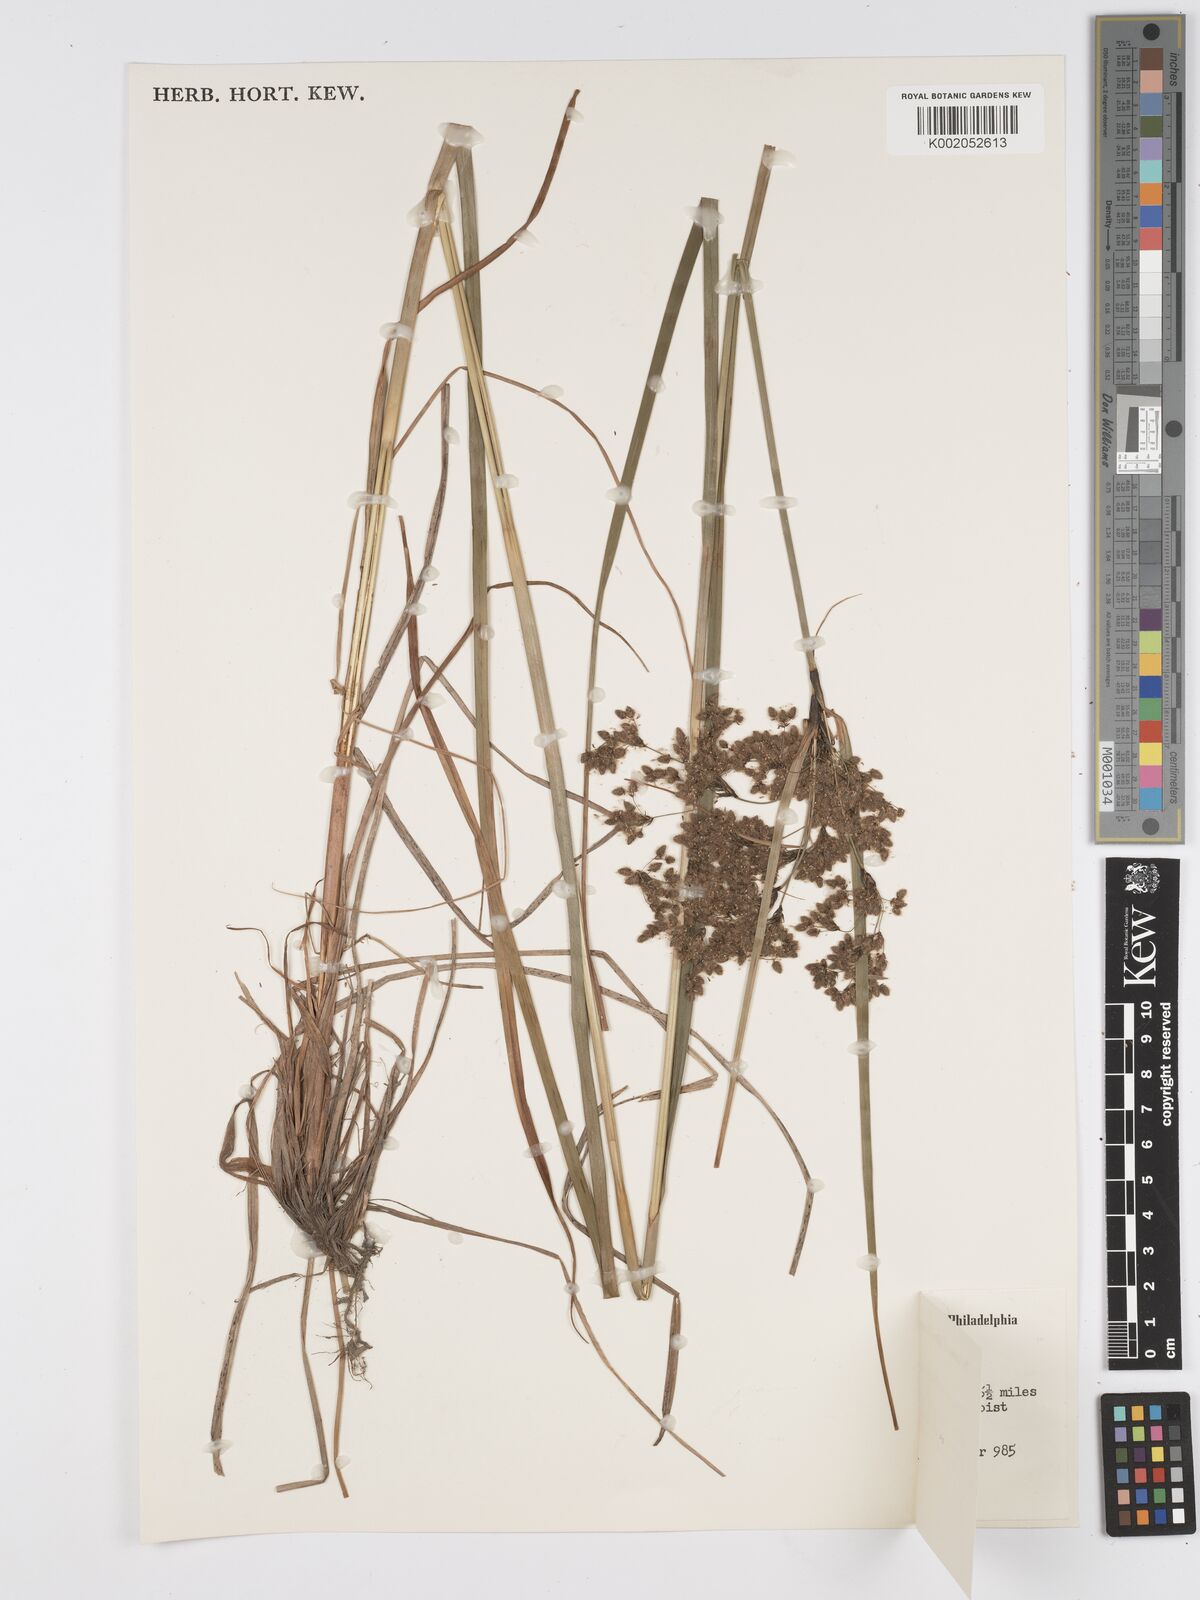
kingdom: Plantae
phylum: Tracheophyta
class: Liliopsida
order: Poales
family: Cyperaceae
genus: Scirpus
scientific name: Scirpus atrocinctus
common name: Black-girdled bulrush
